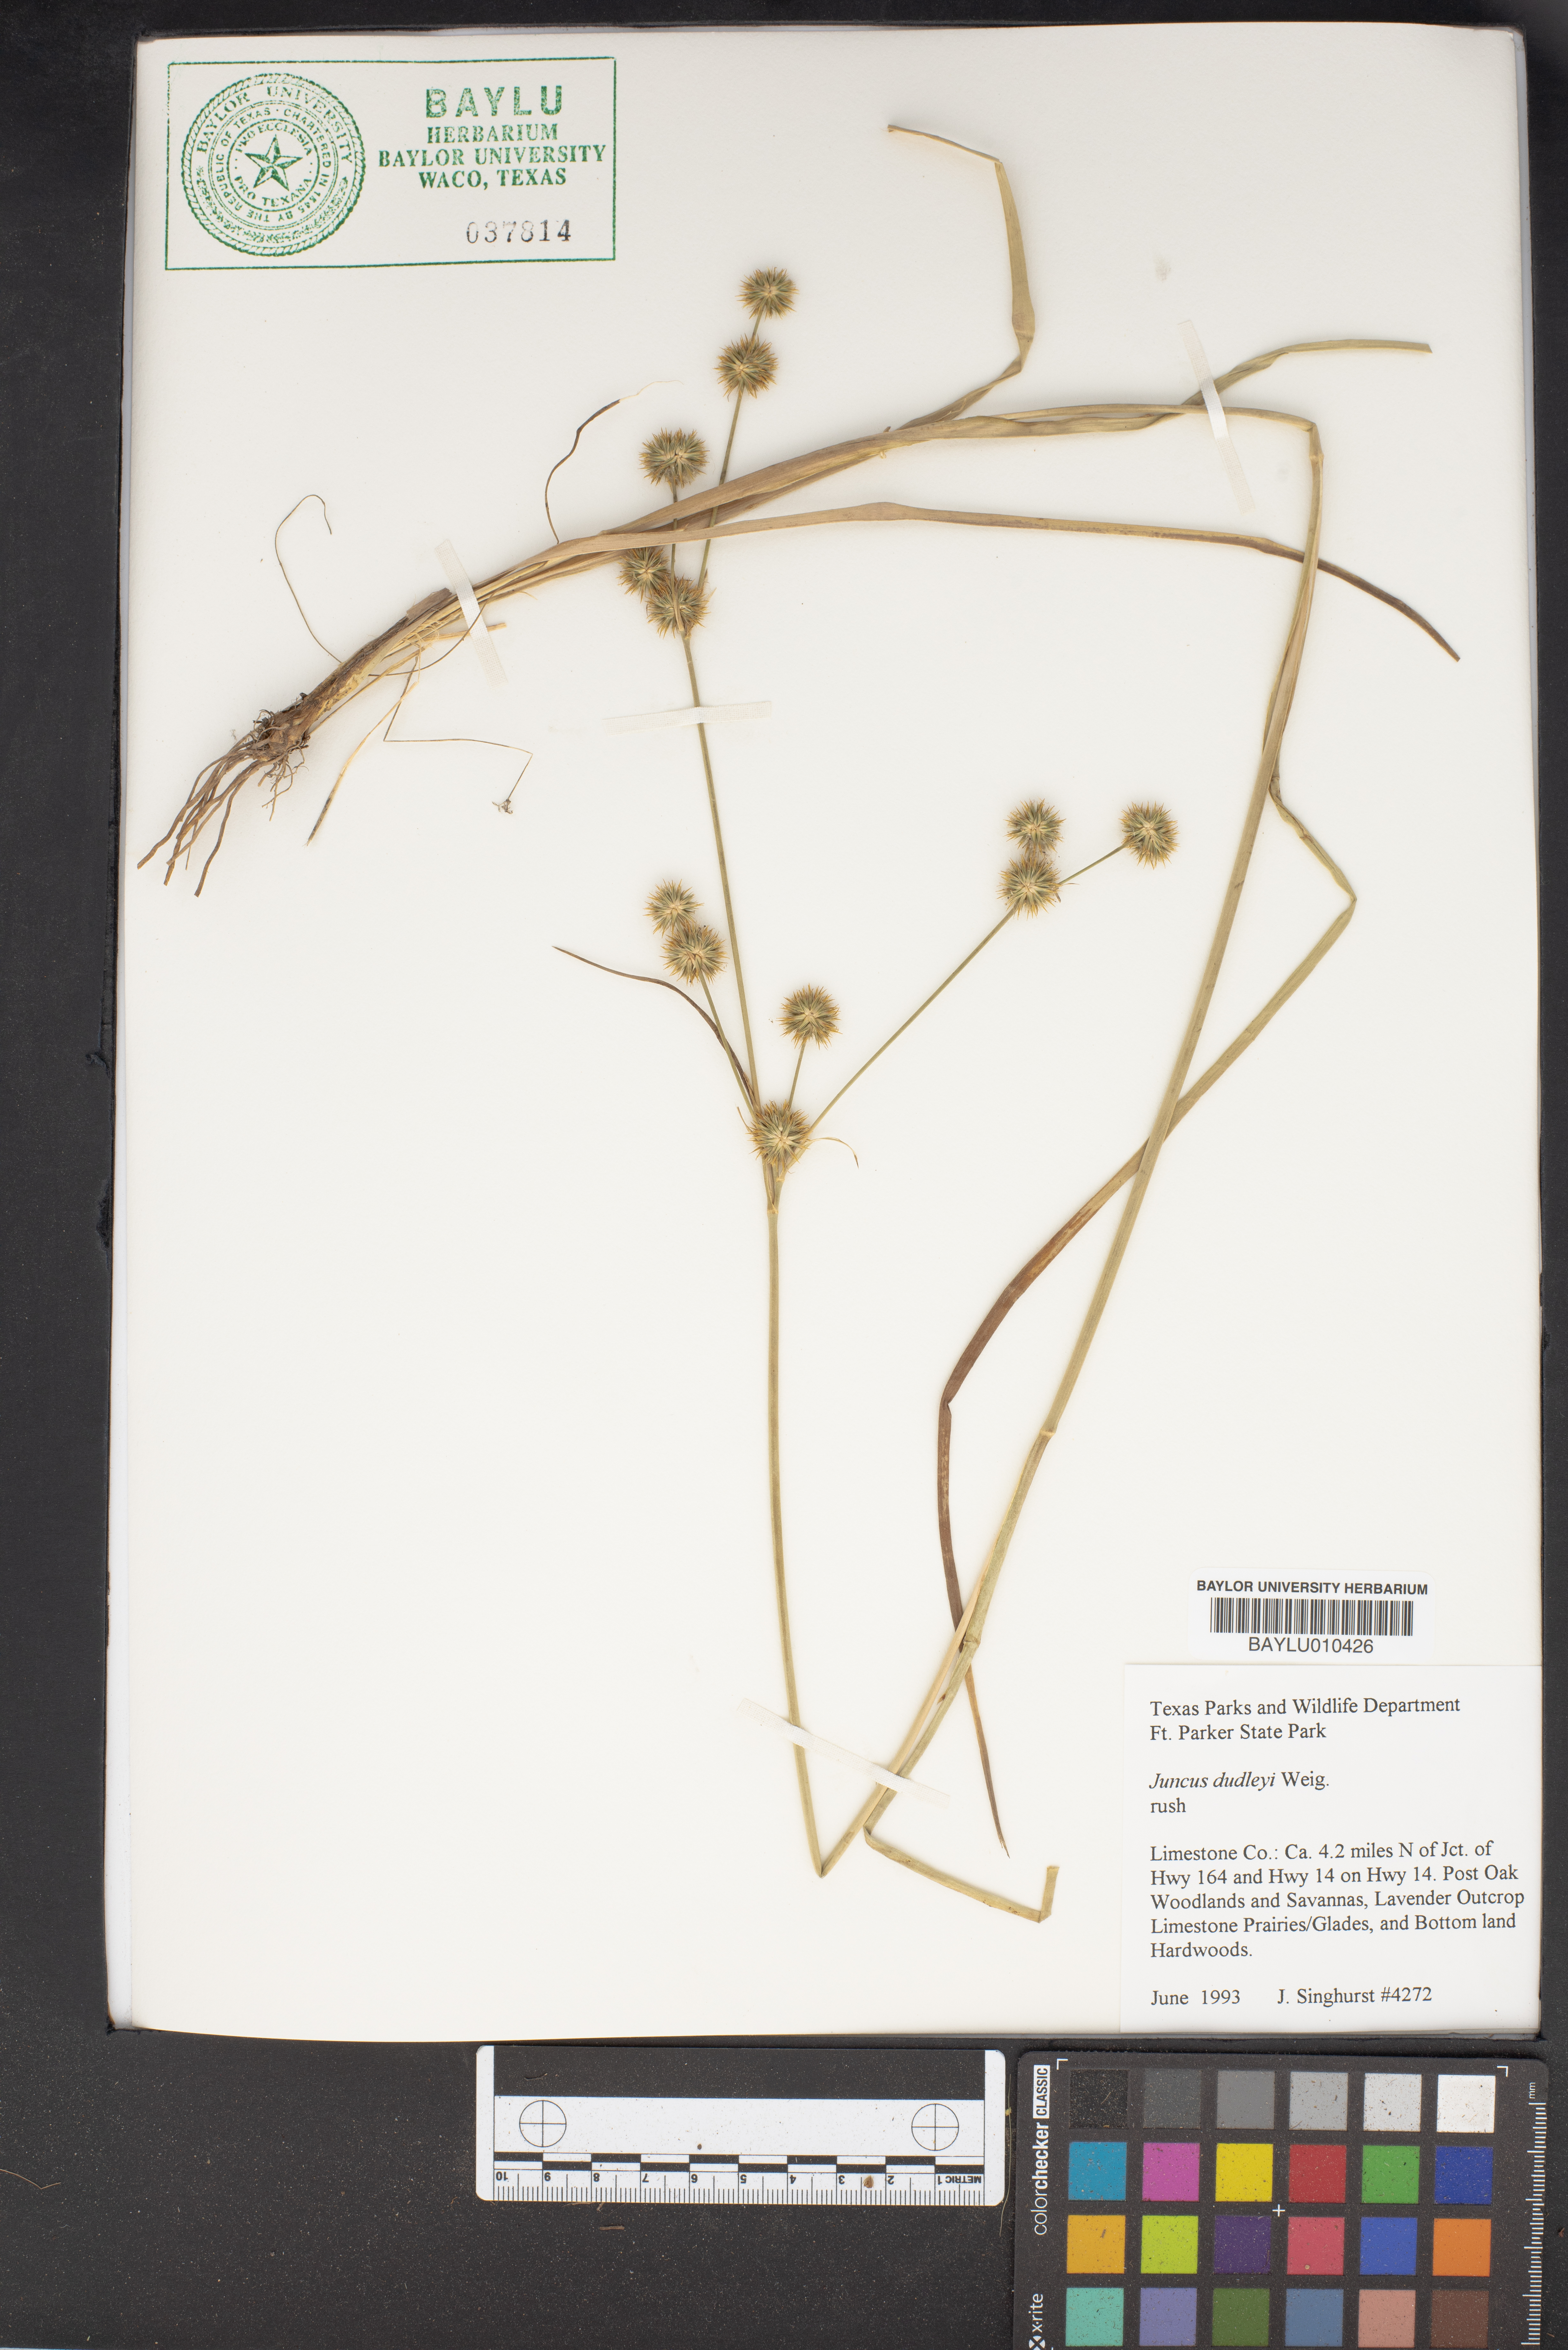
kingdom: Plantae
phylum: Tracheophyta
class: Liliopsida
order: Poales
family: Juncaceae
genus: Juncus
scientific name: Juncus dudleyi
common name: Dudley's rush
